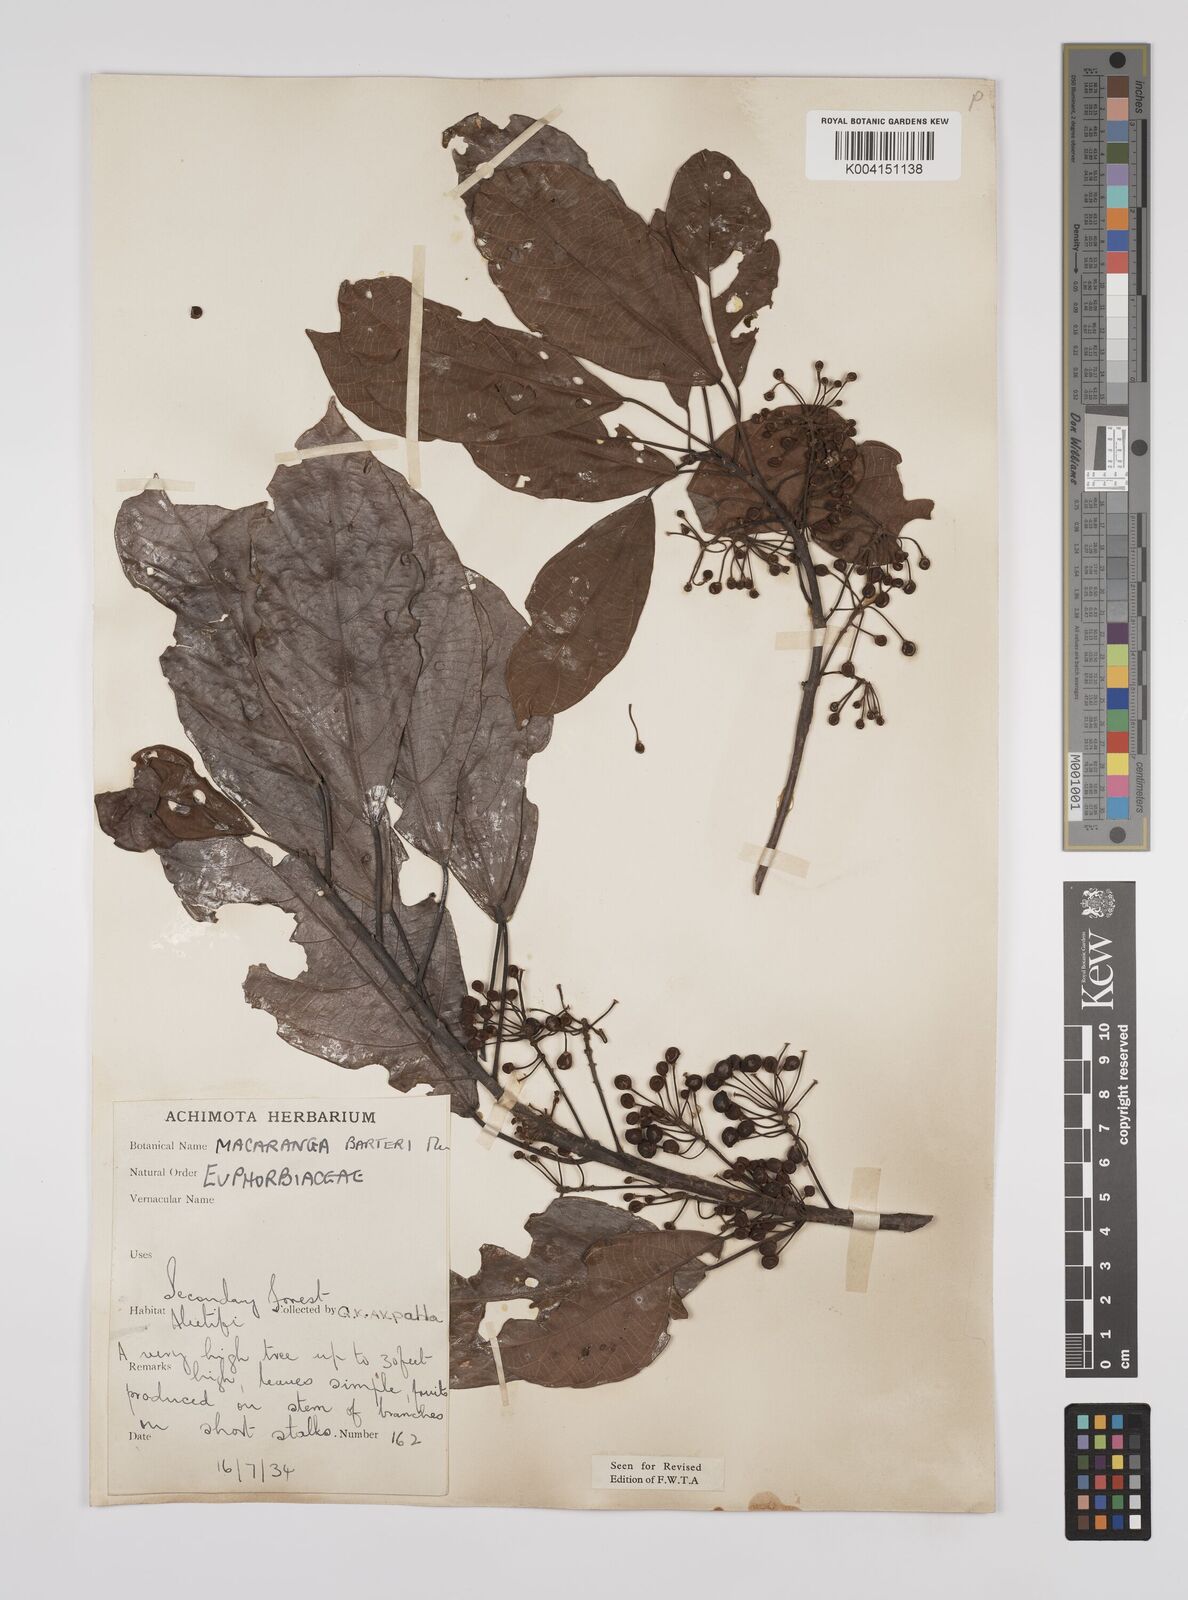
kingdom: Plantae
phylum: Tracheophyta
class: Magnoliopsida
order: Malpighiales
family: Euphorbiaceae
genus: Macaranga
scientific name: Macaranga barteri
